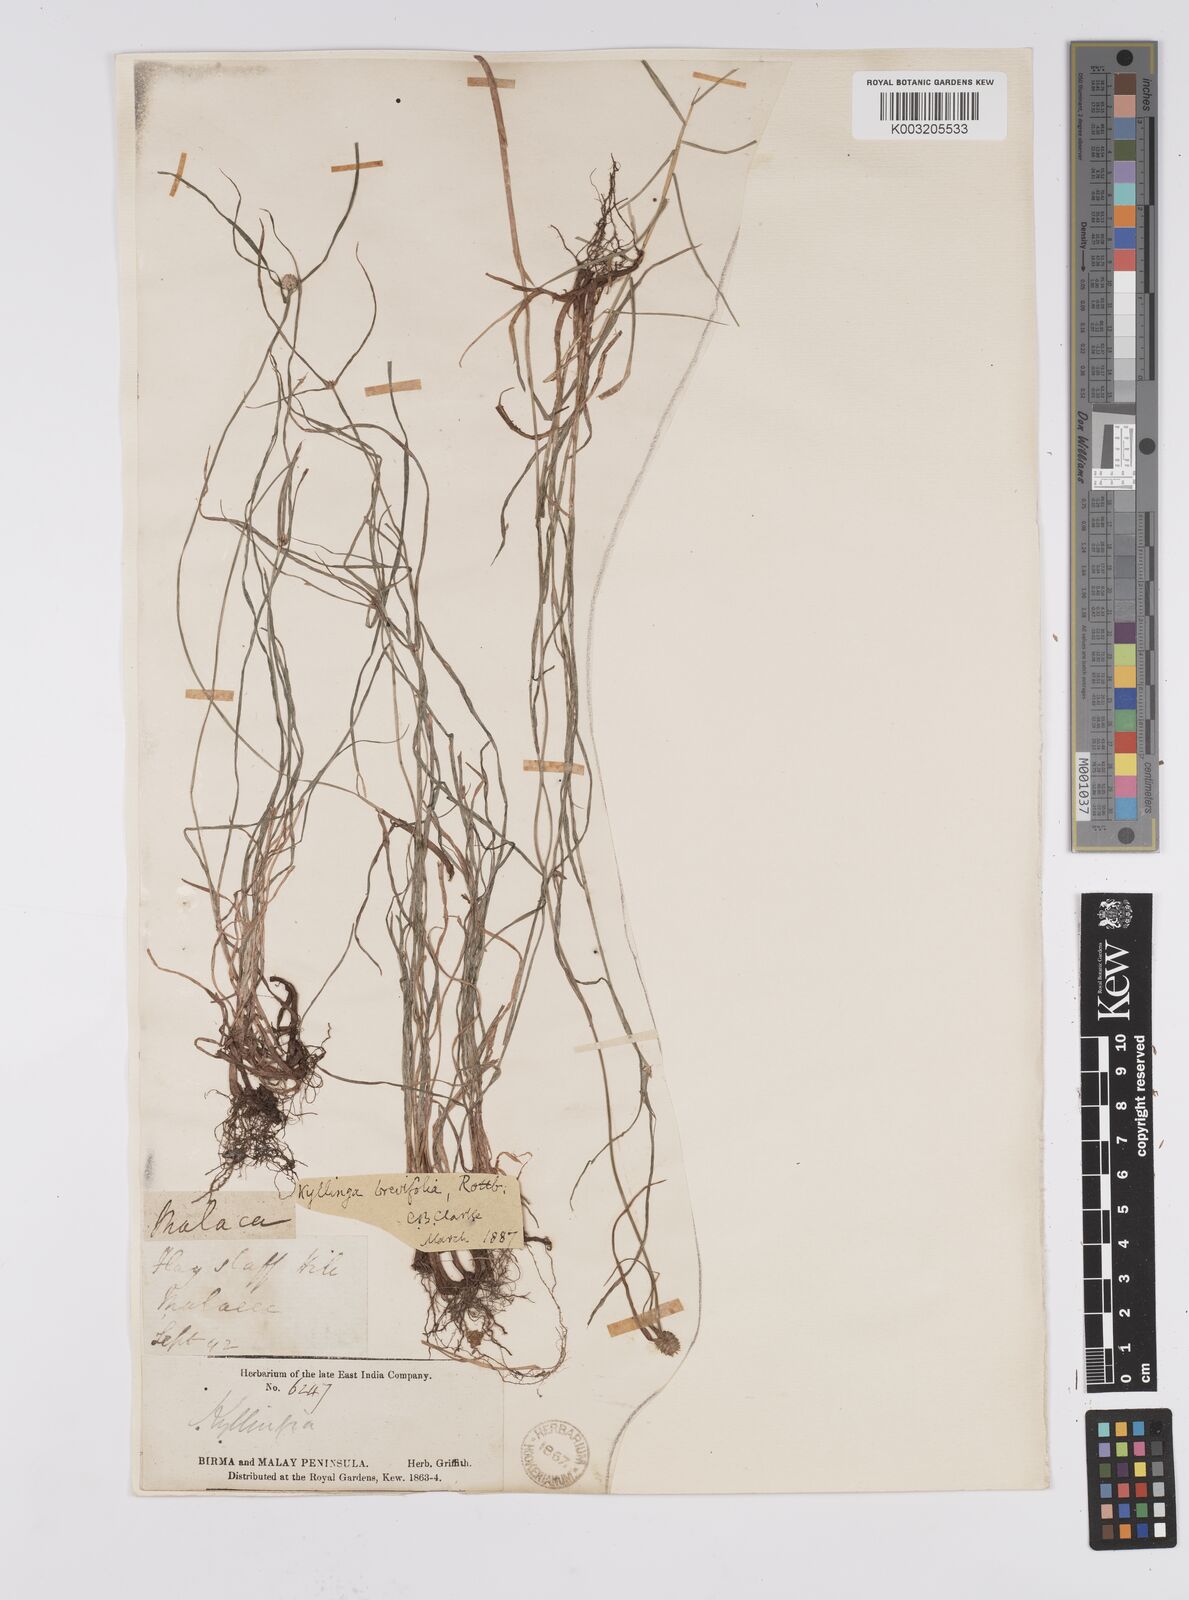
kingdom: Plantae
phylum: Tracheophyta
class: Liliopsida
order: Poales
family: Cyperaceae
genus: Cyperus
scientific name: Cyperus
